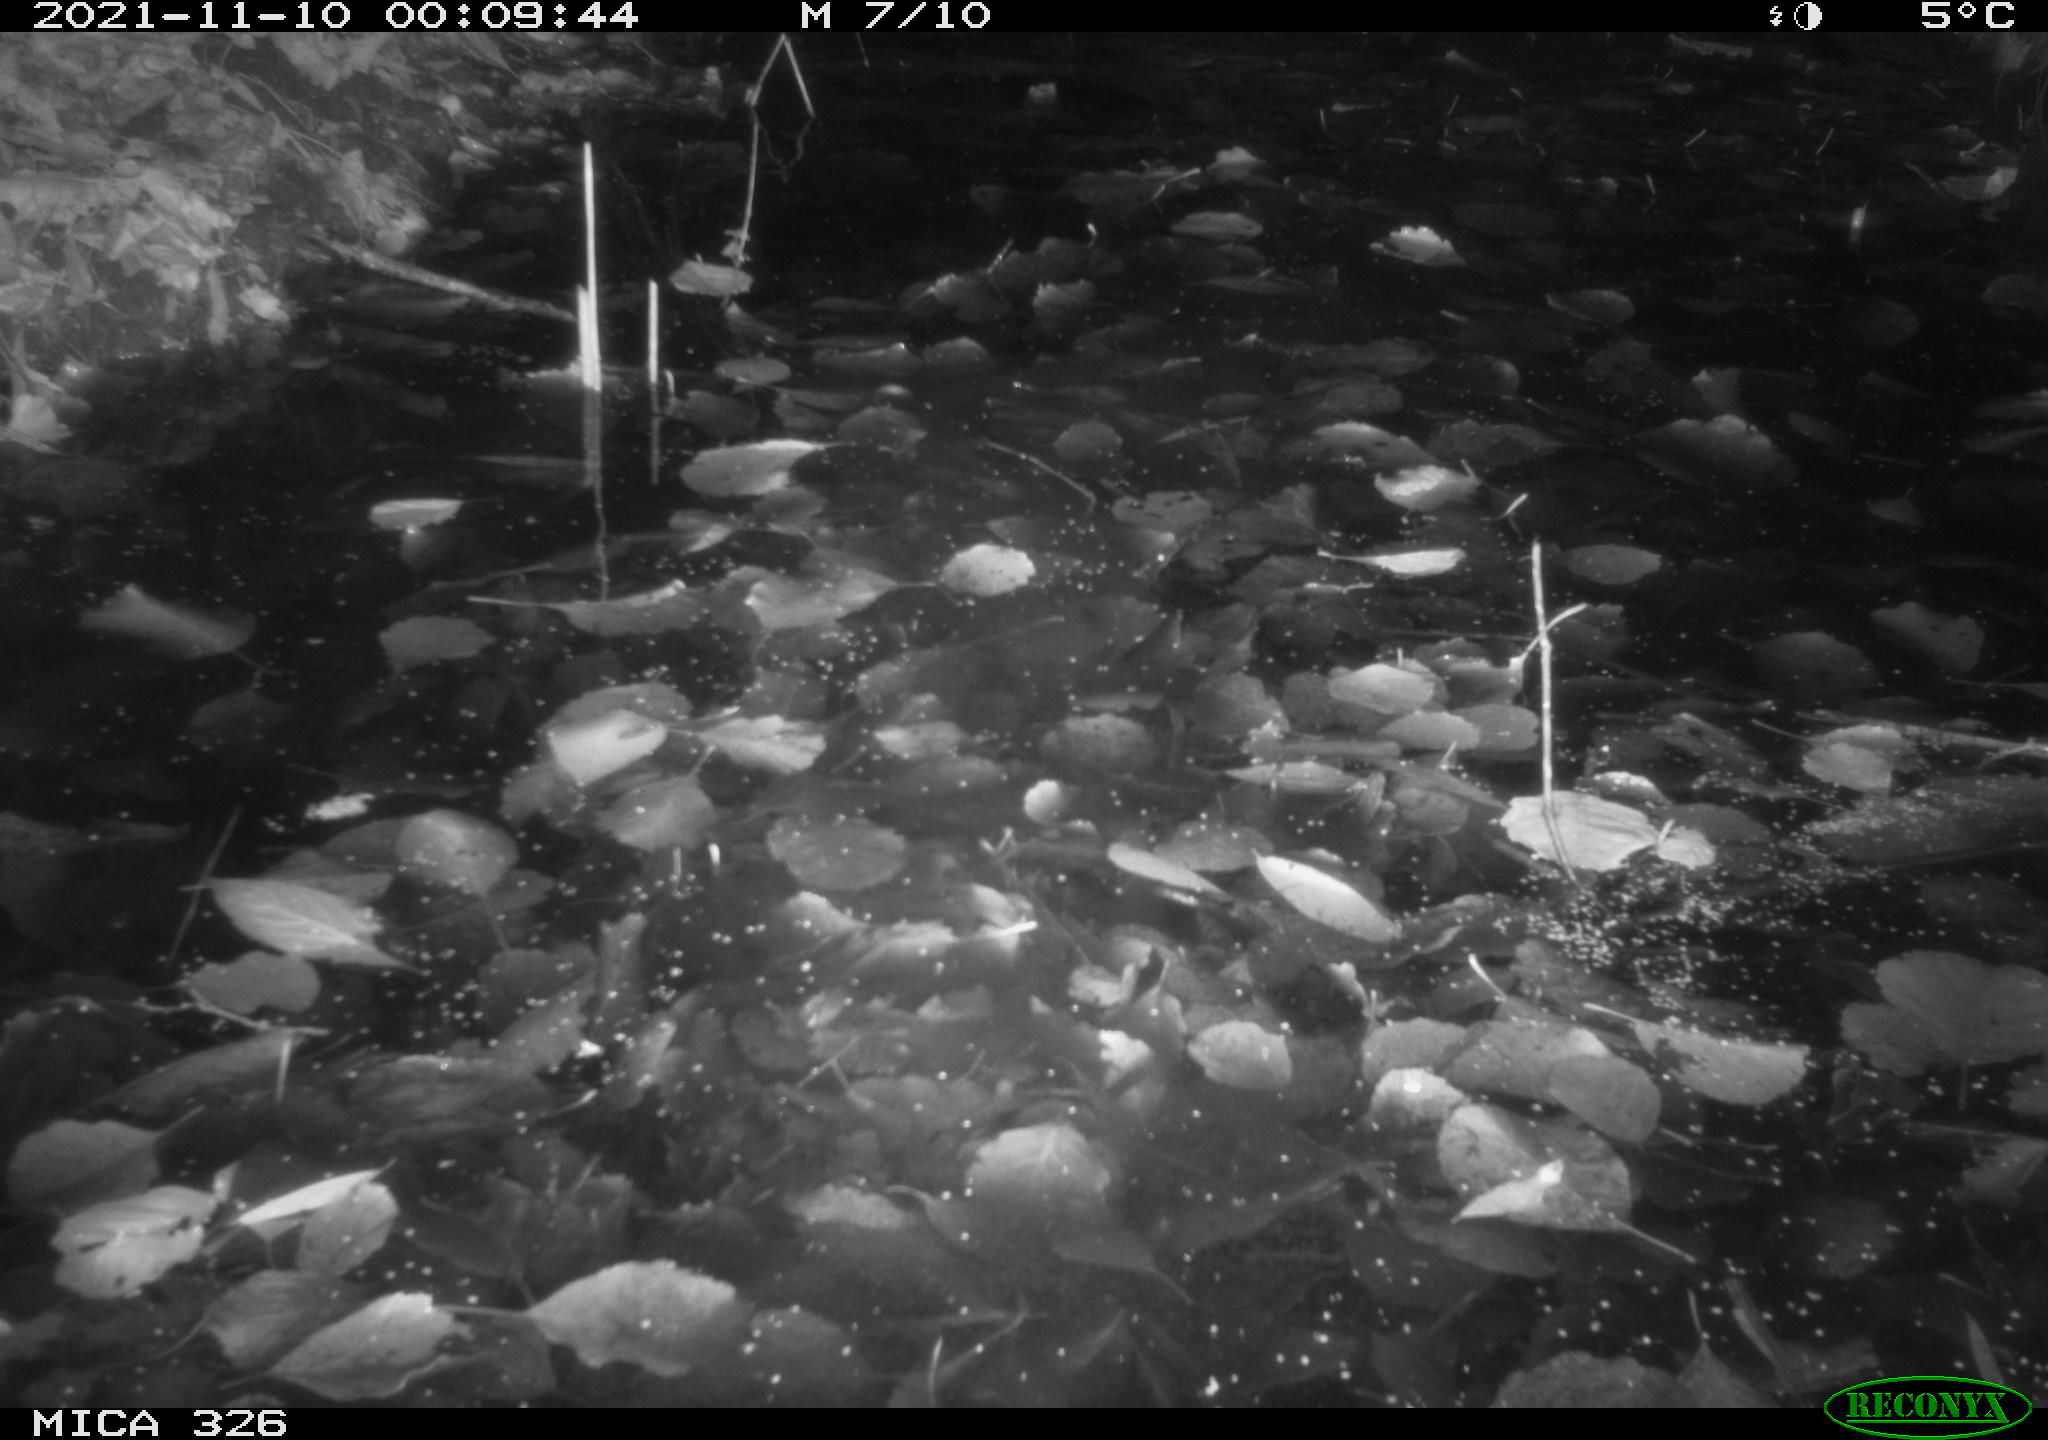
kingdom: Animalia
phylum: Chordata
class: Mammalia
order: Rodentia
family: Myocastoridae
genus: Myocastor
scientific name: Myocastor coypus
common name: Coypu
